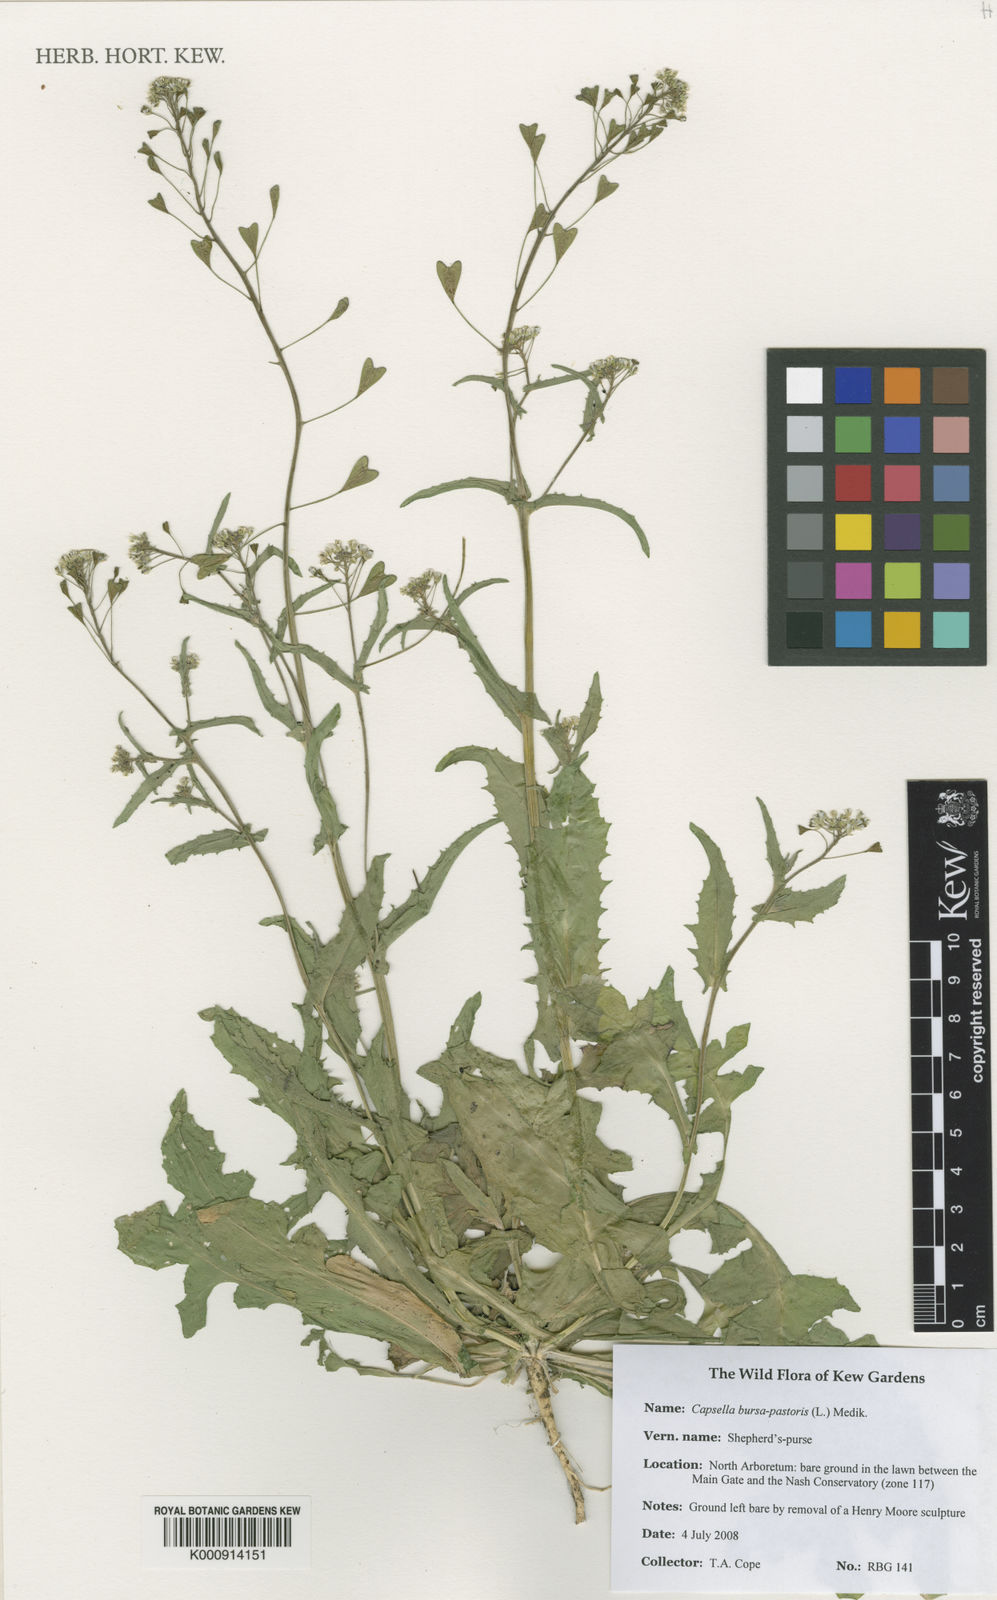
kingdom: Plantae
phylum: Tracheophyta
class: Magnoliopsida
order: Brassicales
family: Brassicaceae
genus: Capsella
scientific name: Capsella bursa-pastoris
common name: Shepherd's purse
